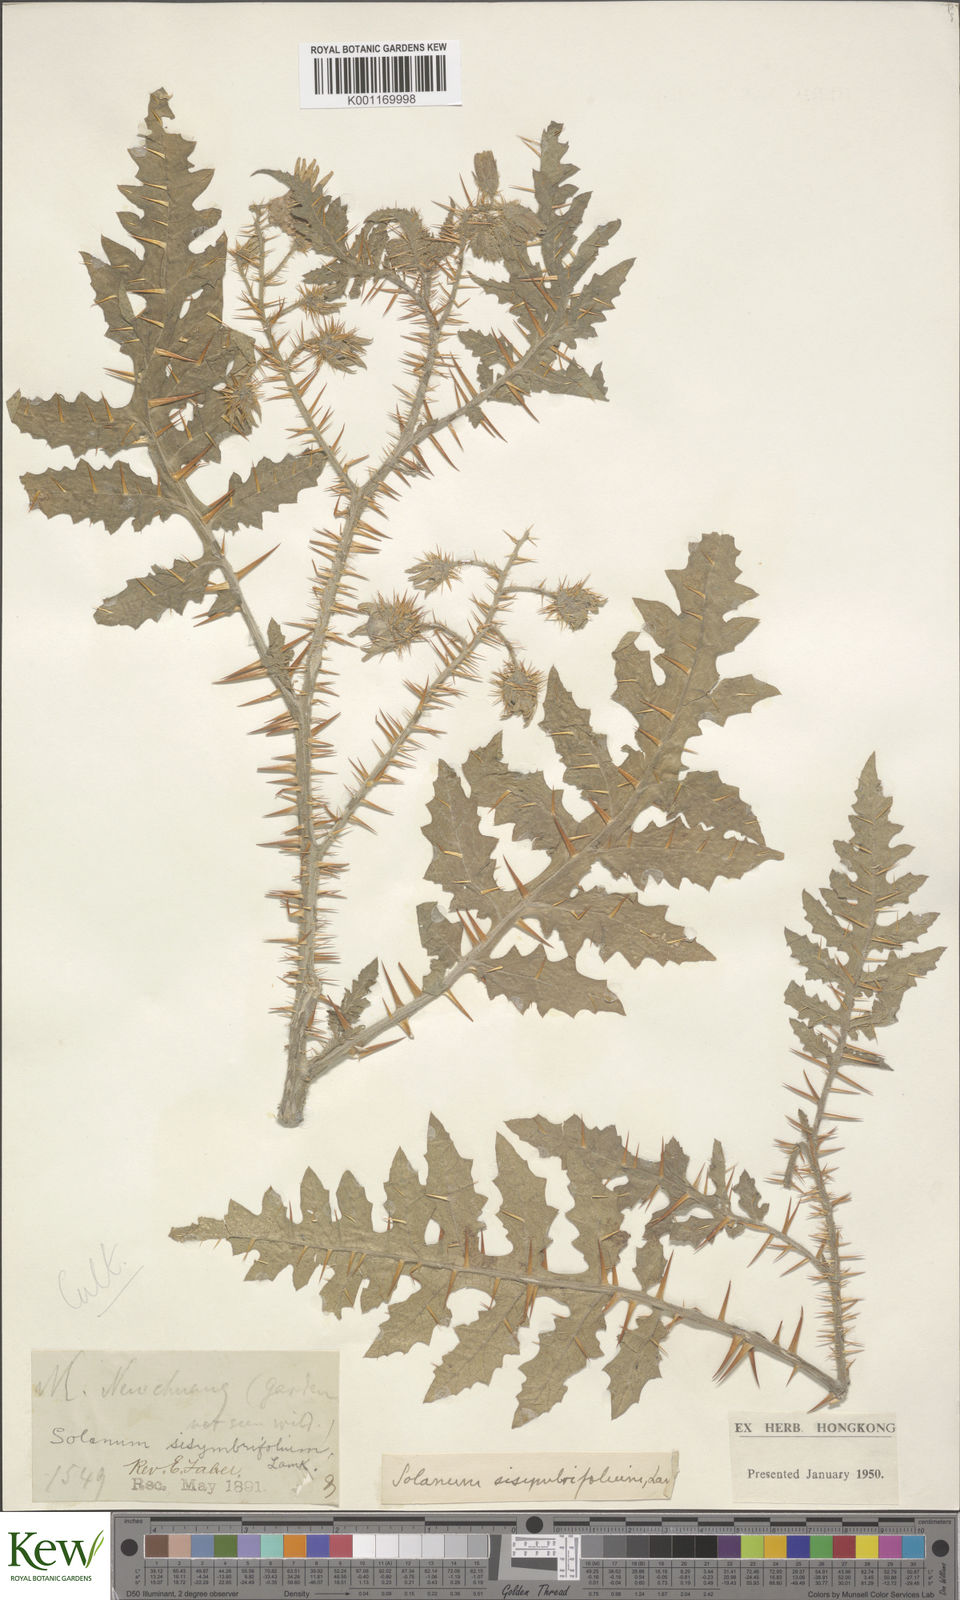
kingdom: Plantae
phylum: Tracheophyta
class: Magnoliopsida
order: Solanales
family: Solanaceae
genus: Solanum
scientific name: Solanum sisymbriifolium
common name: Red buffalo-bur
